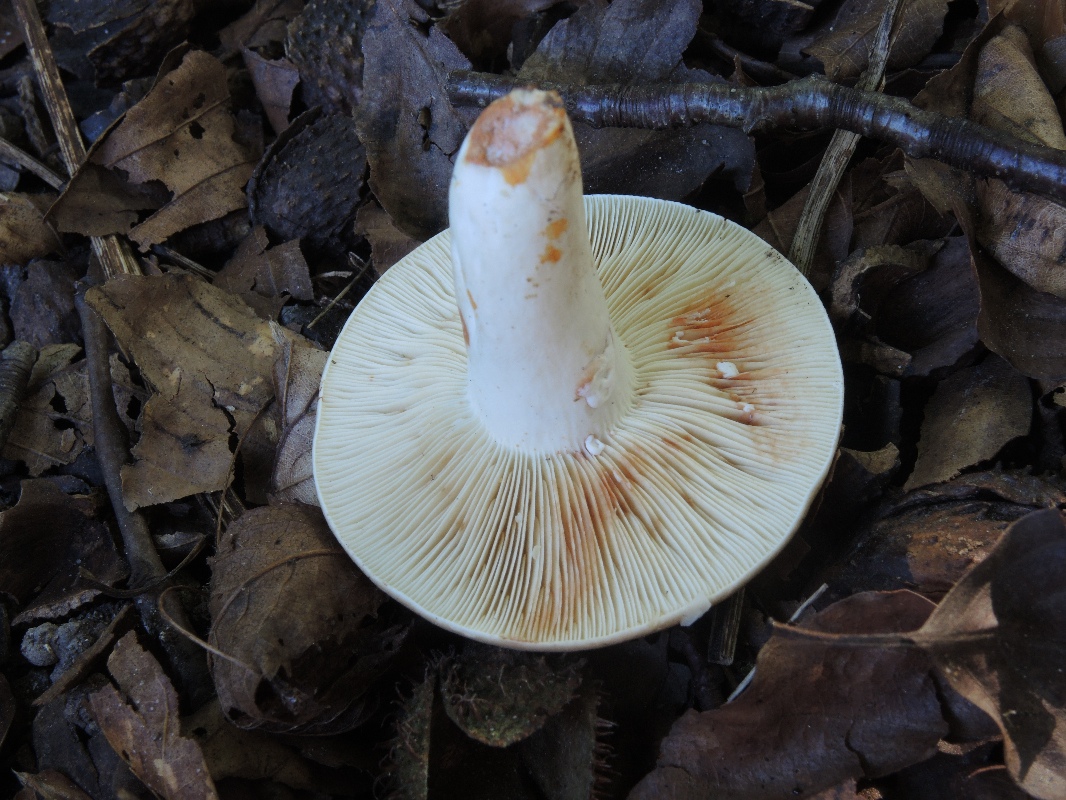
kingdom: Fungi
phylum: Basidiomycota
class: Agaricomycetes
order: Russulales
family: Russulaceae
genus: Lactarius
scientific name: Lactarius azonites
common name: røggrå mælkehat
